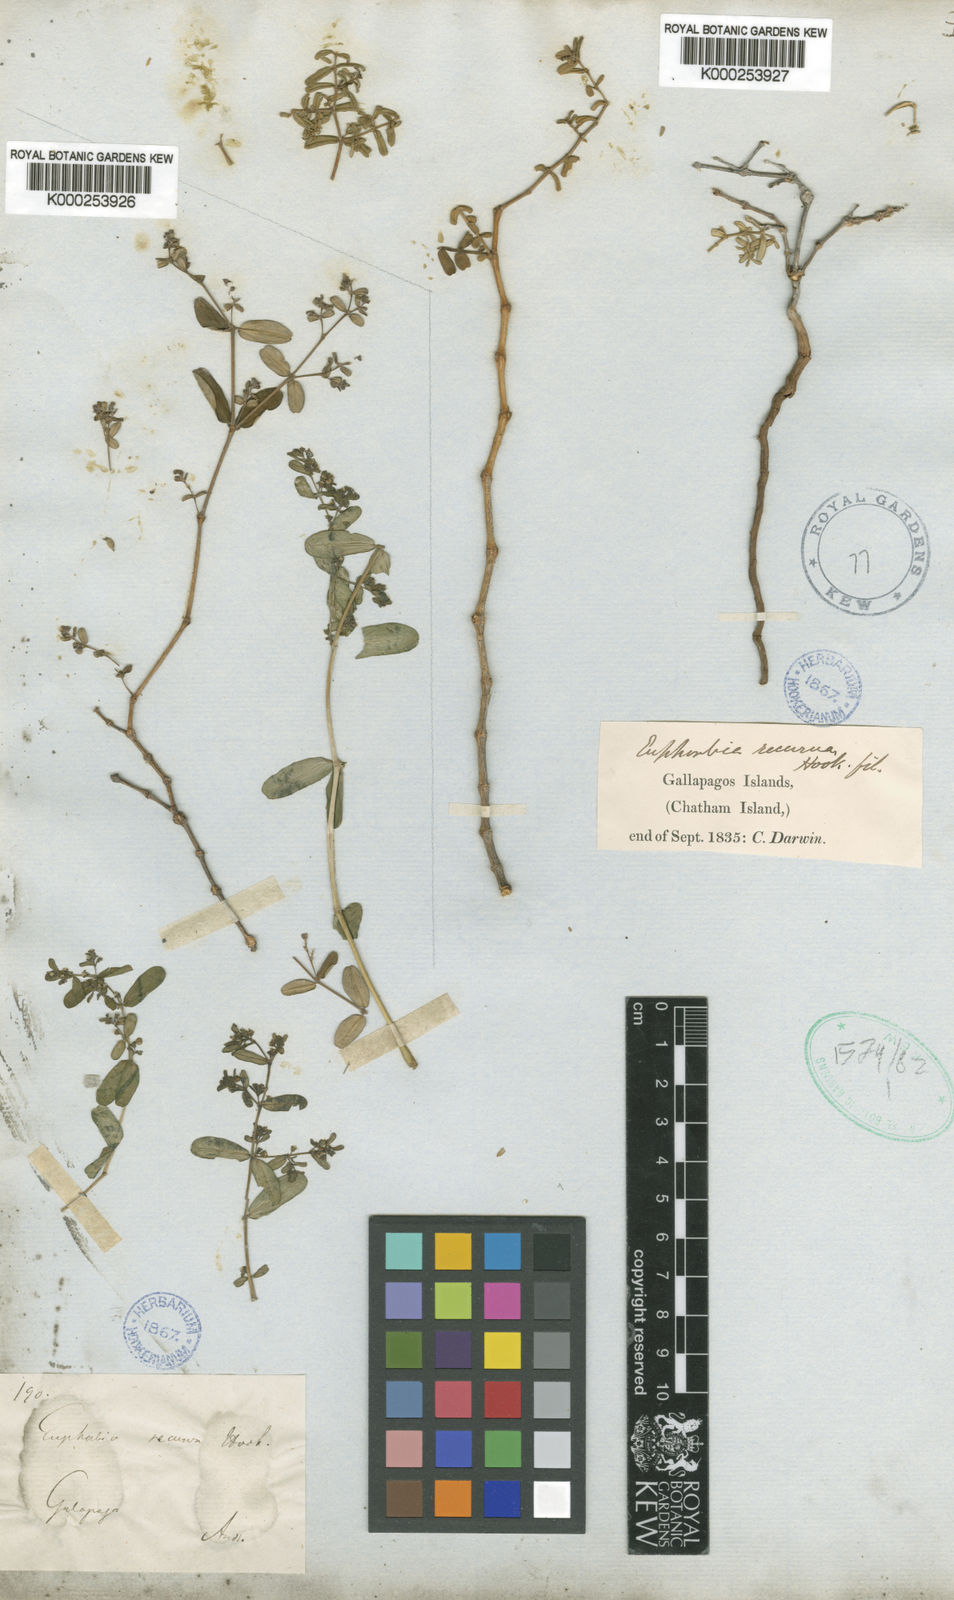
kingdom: Plantae
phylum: Tracheophyta
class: Magnoliopsida
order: Malpighiales
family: Euphorbiaceae
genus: Euphorbia
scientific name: Euphorbia recurva
